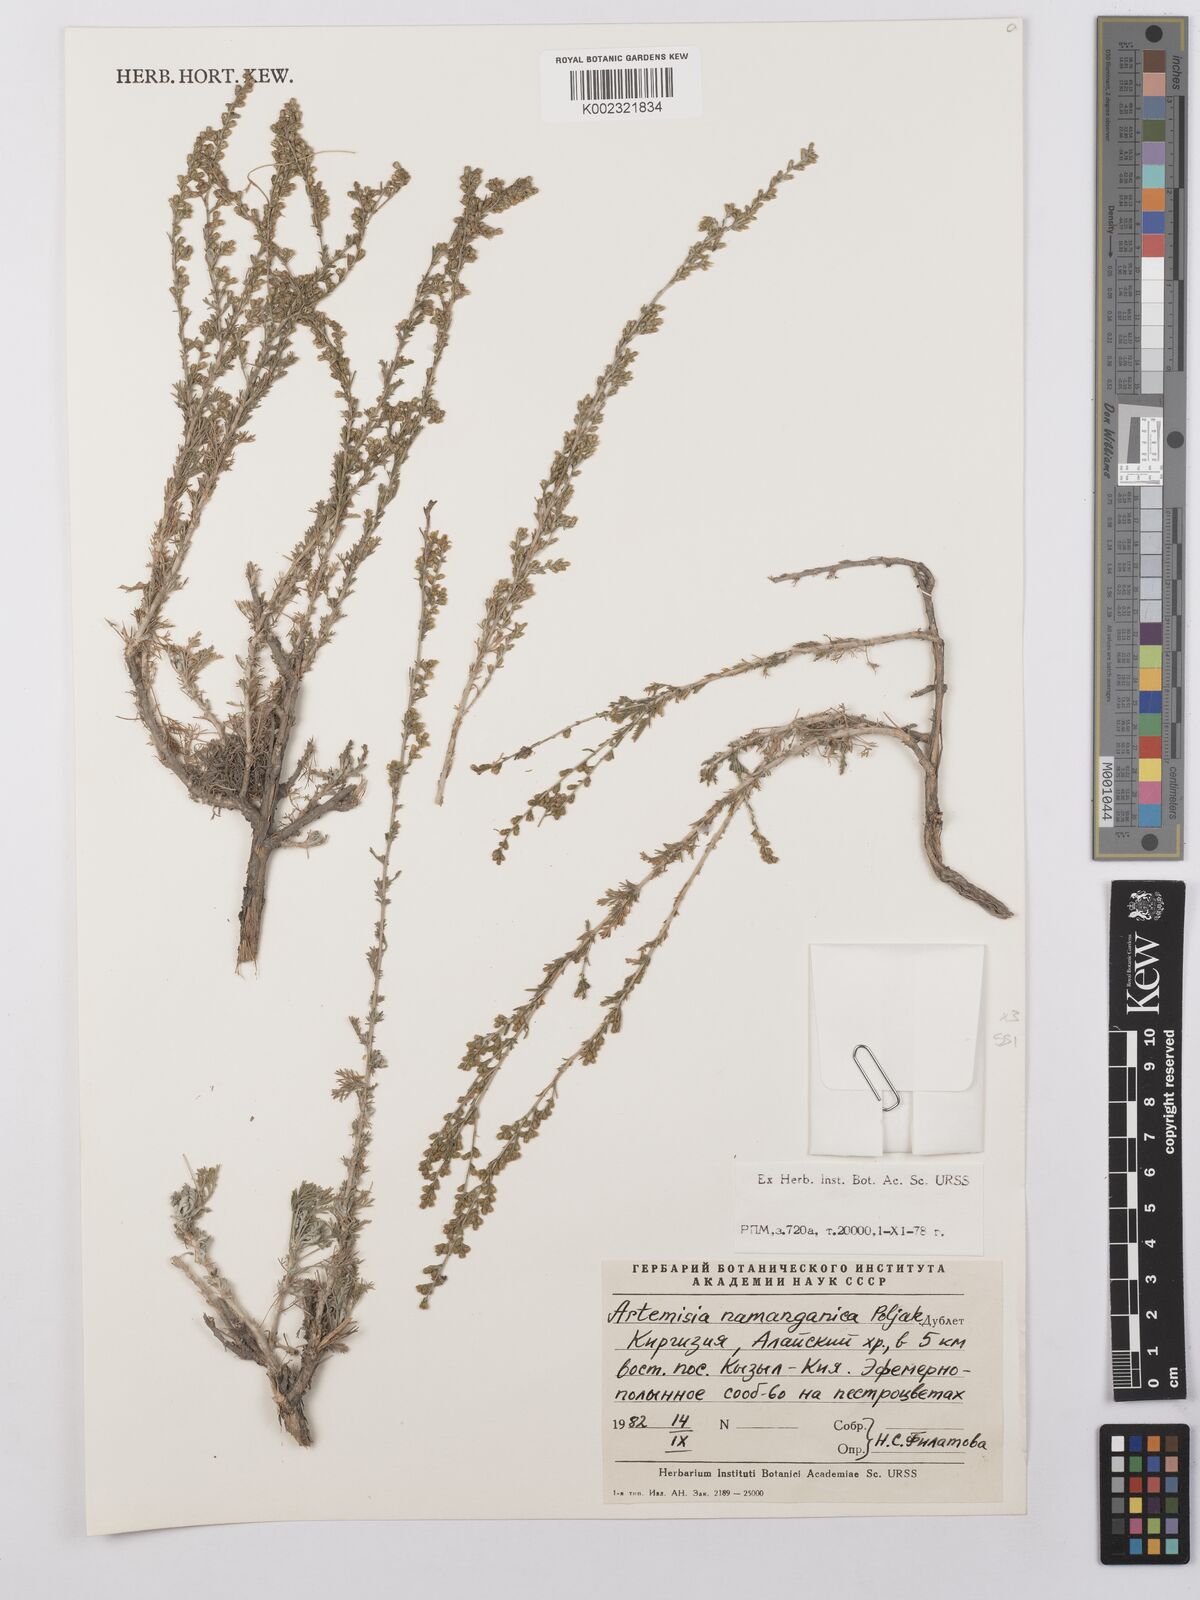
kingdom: Plantae
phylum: Tracheophyta
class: Magnoliopsida
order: Asterales
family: Asteraceae
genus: Artemisia
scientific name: Artemisia namanganica
